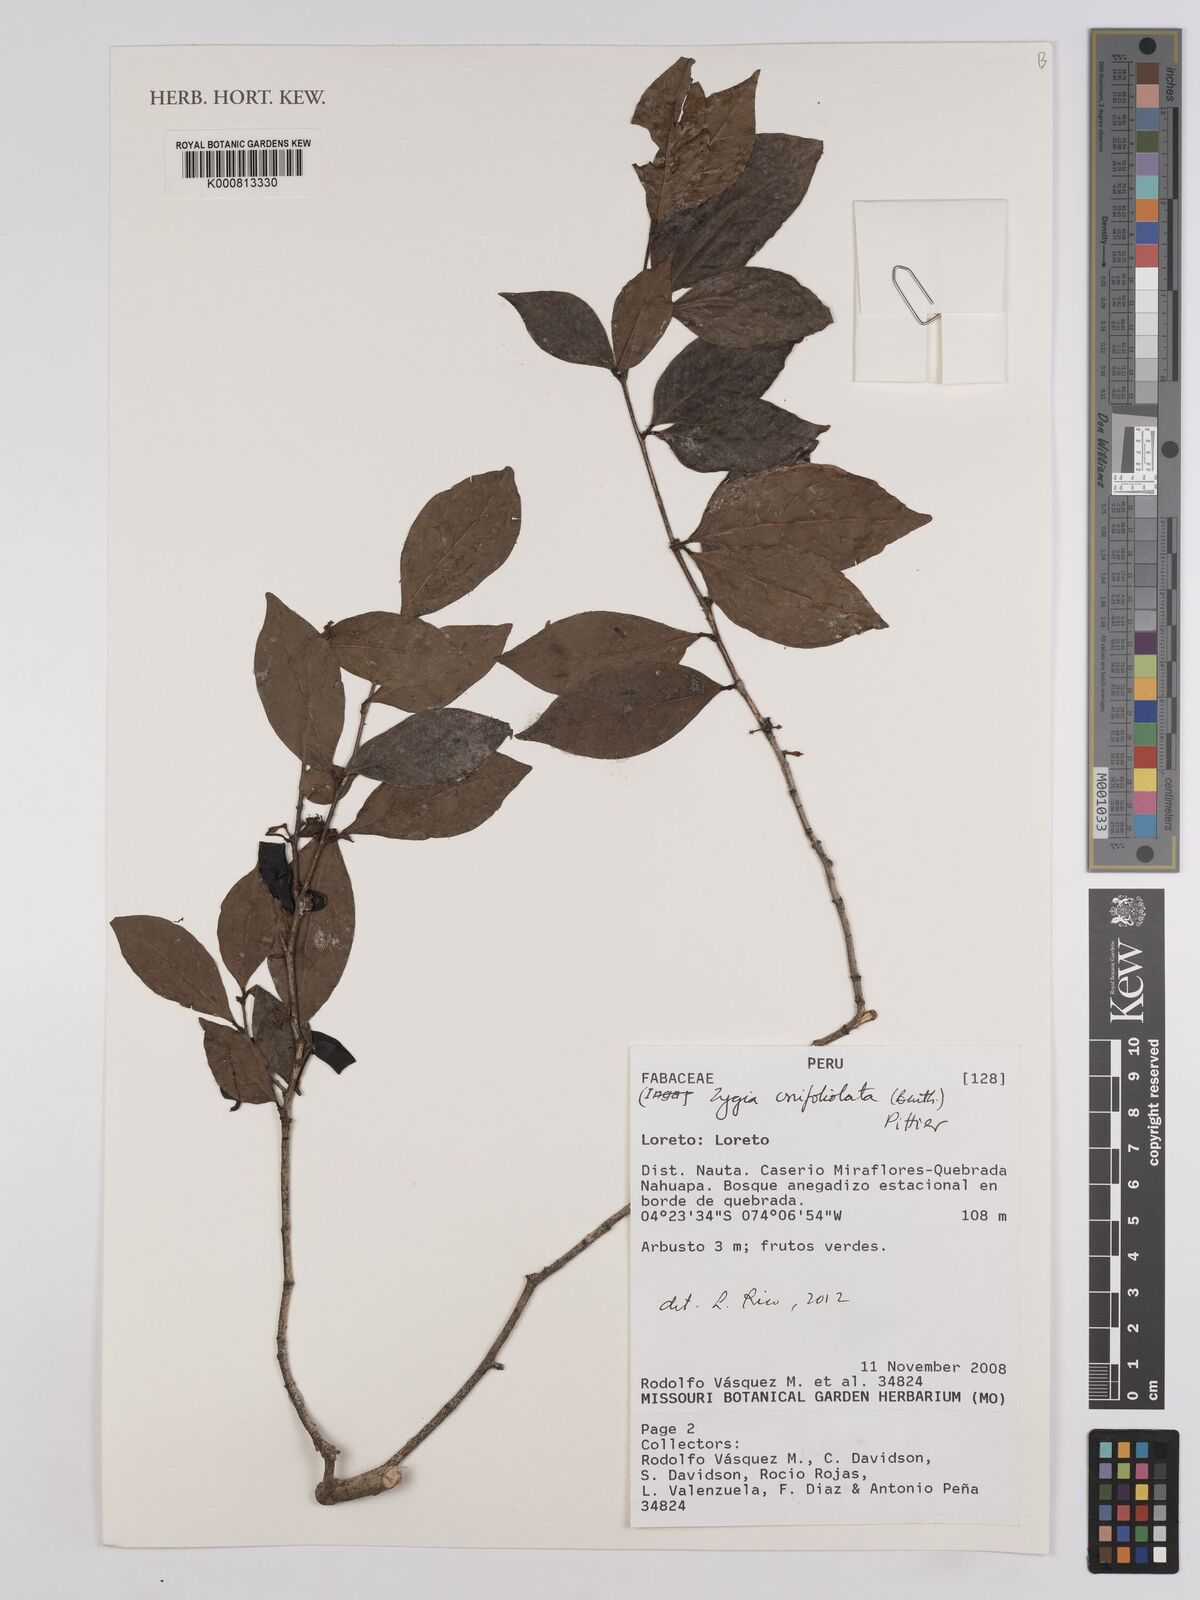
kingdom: Plantae
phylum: Tracheophyta
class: Magnoliopsida
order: Fabales
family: Fabaceae
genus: Zygia
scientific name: Zygia unifoliolata
